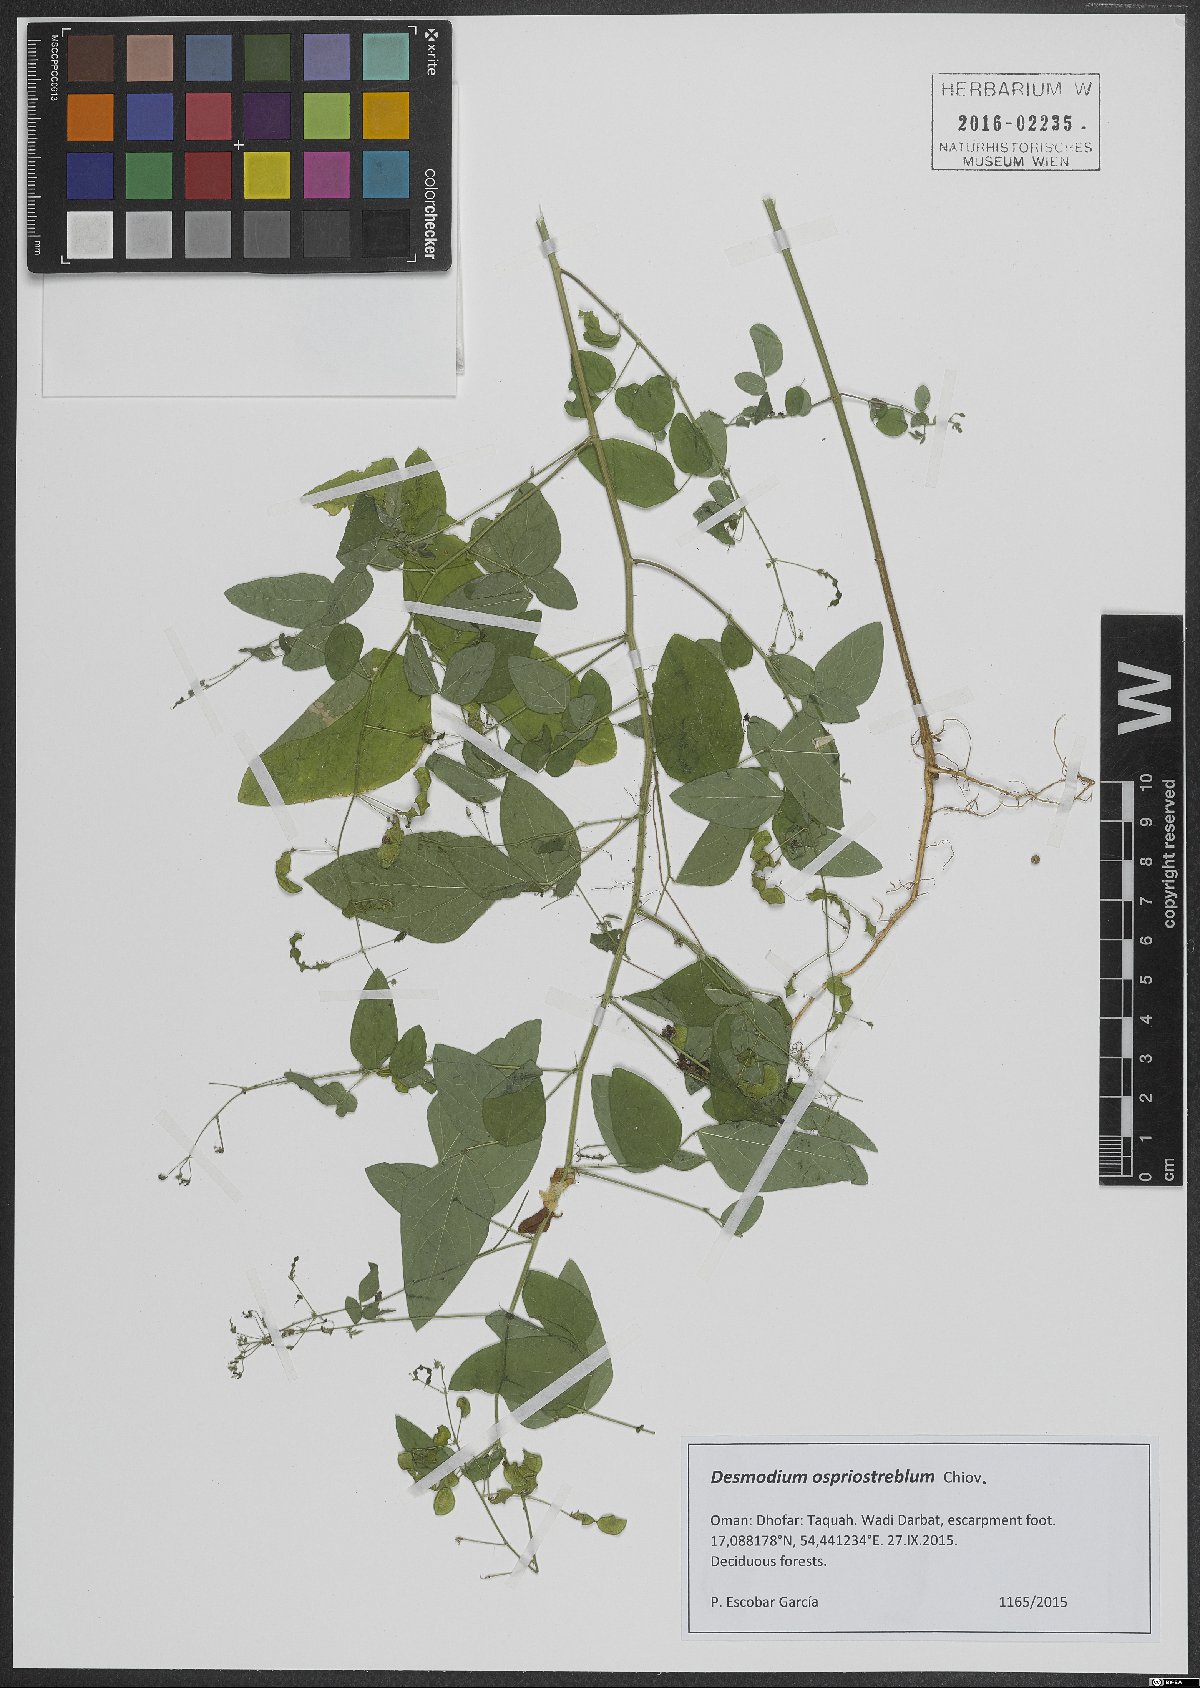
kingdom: Plantae
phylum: Tracheophyta
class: Magnoliopsida
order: Fabales
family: Fabaceae
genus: Desmodium
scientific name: Desmodium ospriostreblum
